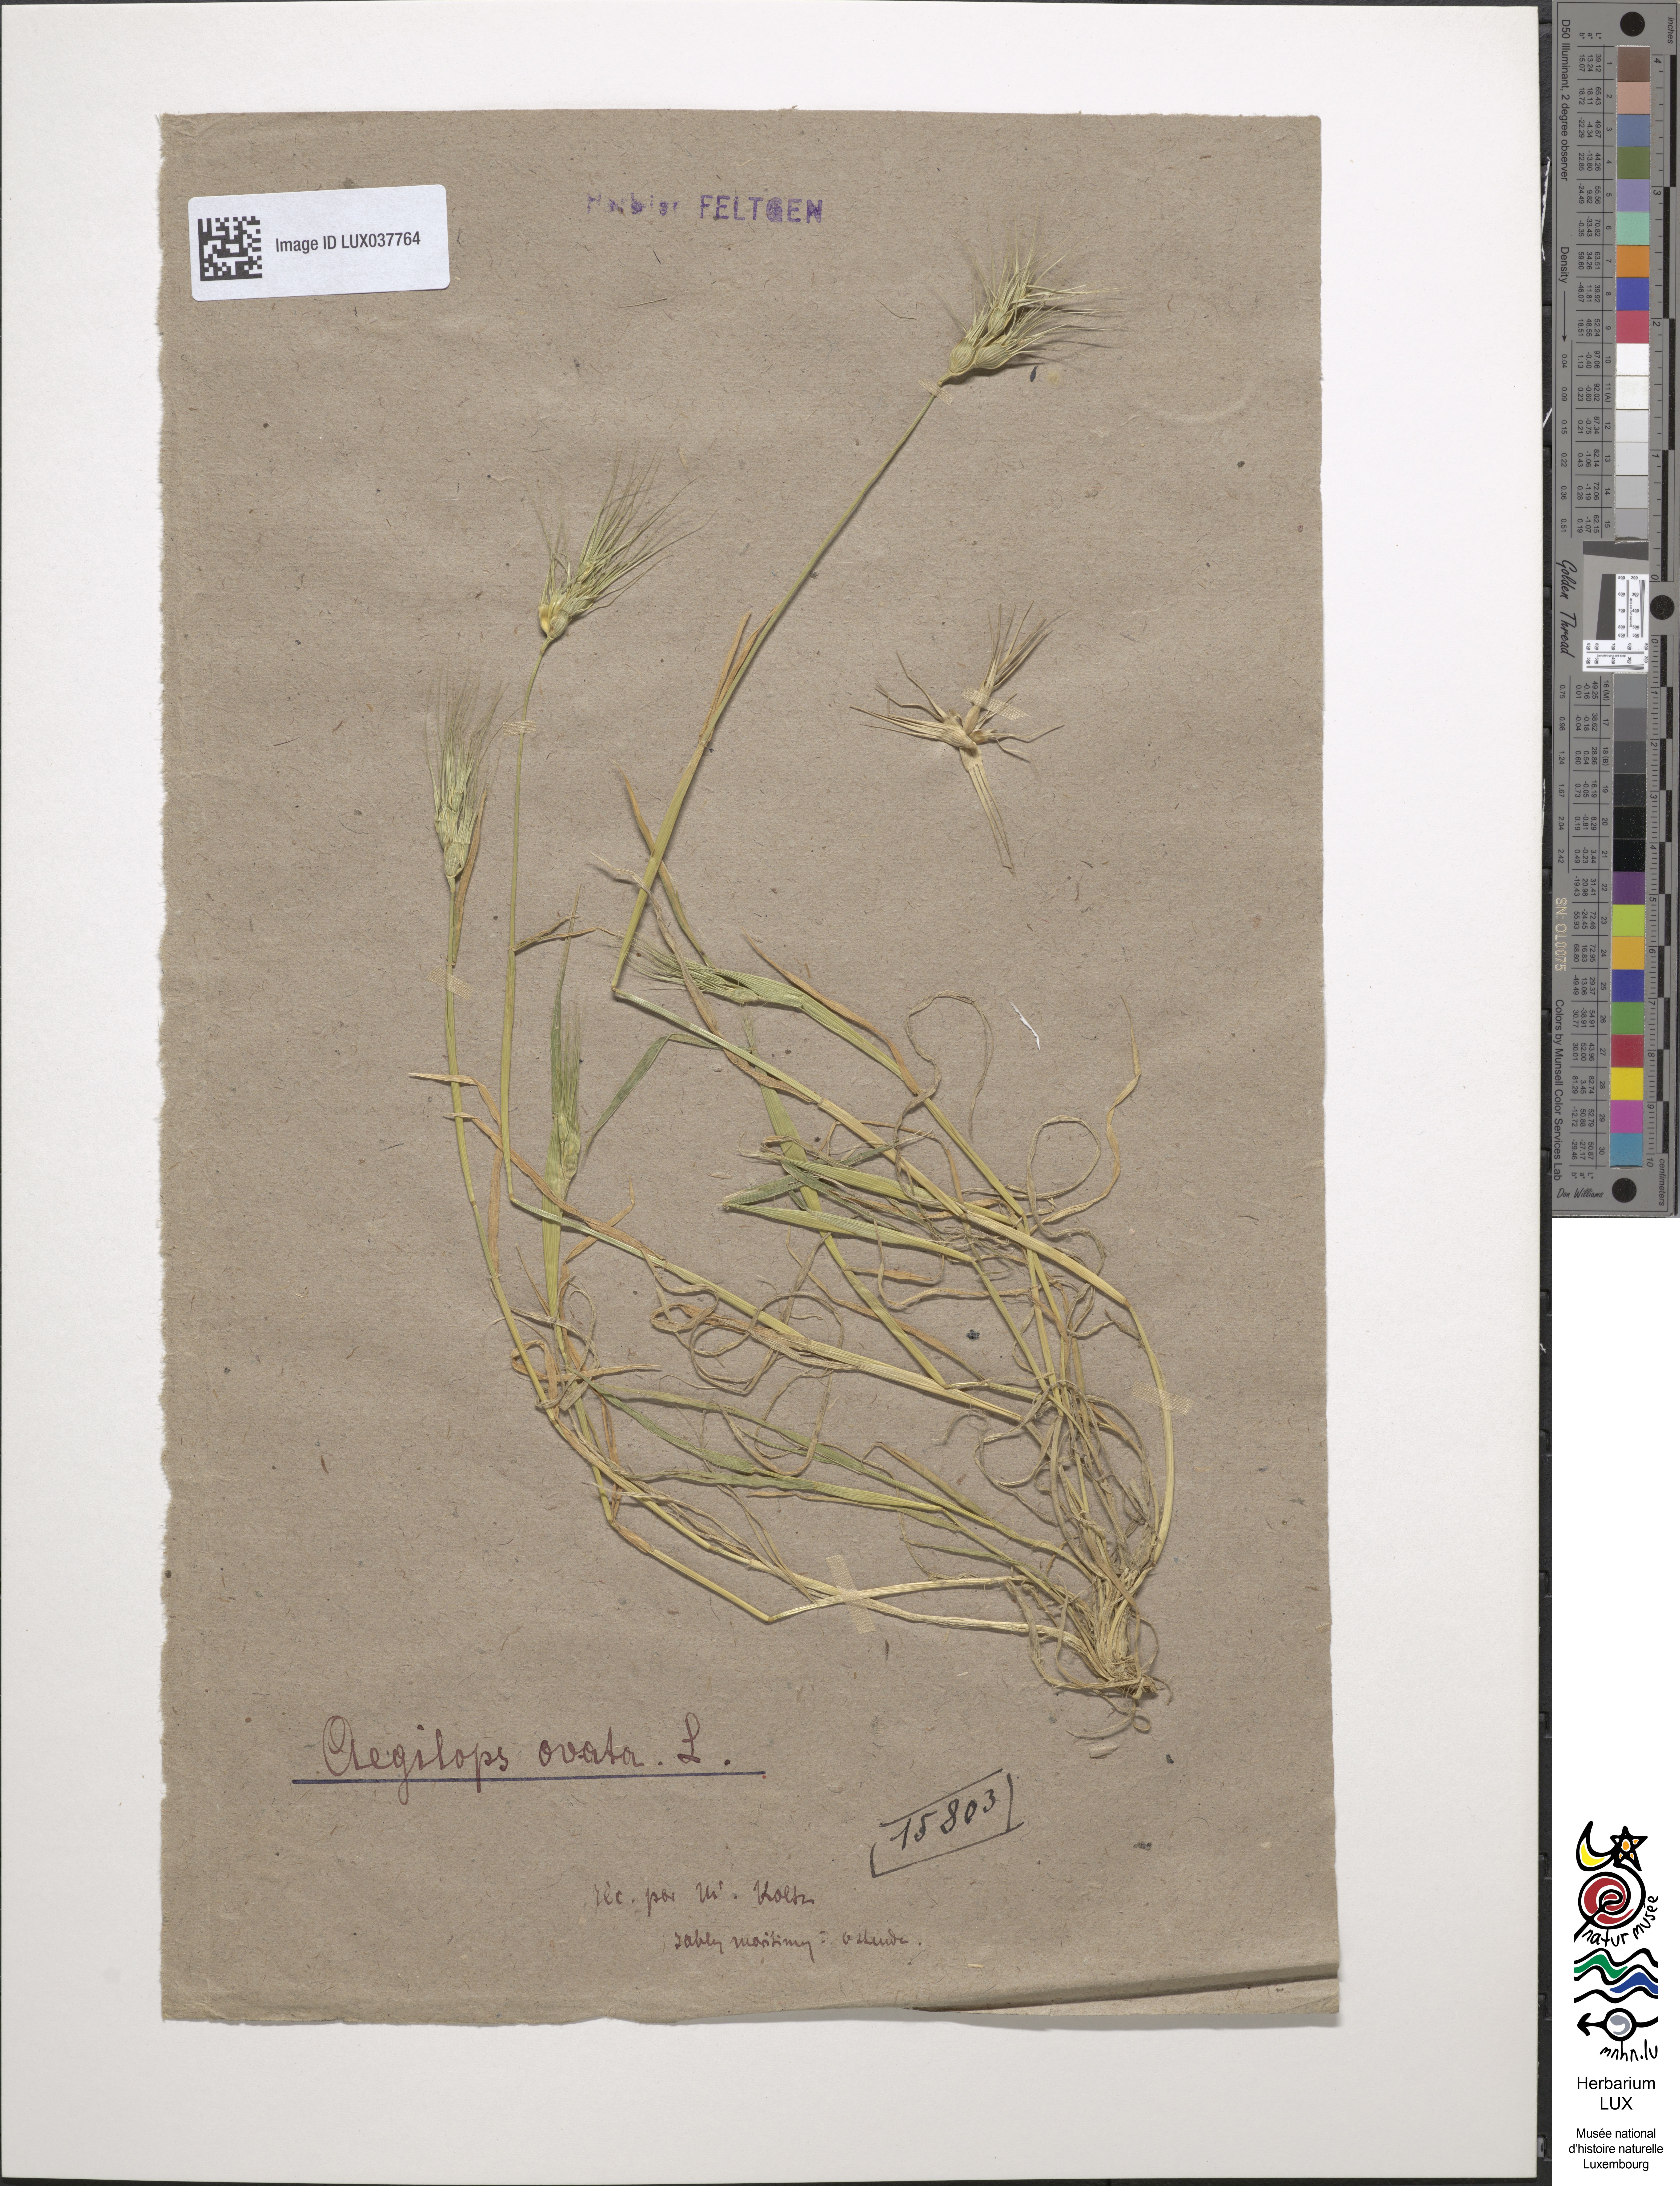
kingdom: Plantae
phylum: Tracheophyta
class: Liliopsida
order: Poales
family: Poaceae
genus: Gaudinia
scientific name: Gaudinia fragilis
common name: French oat-grass
